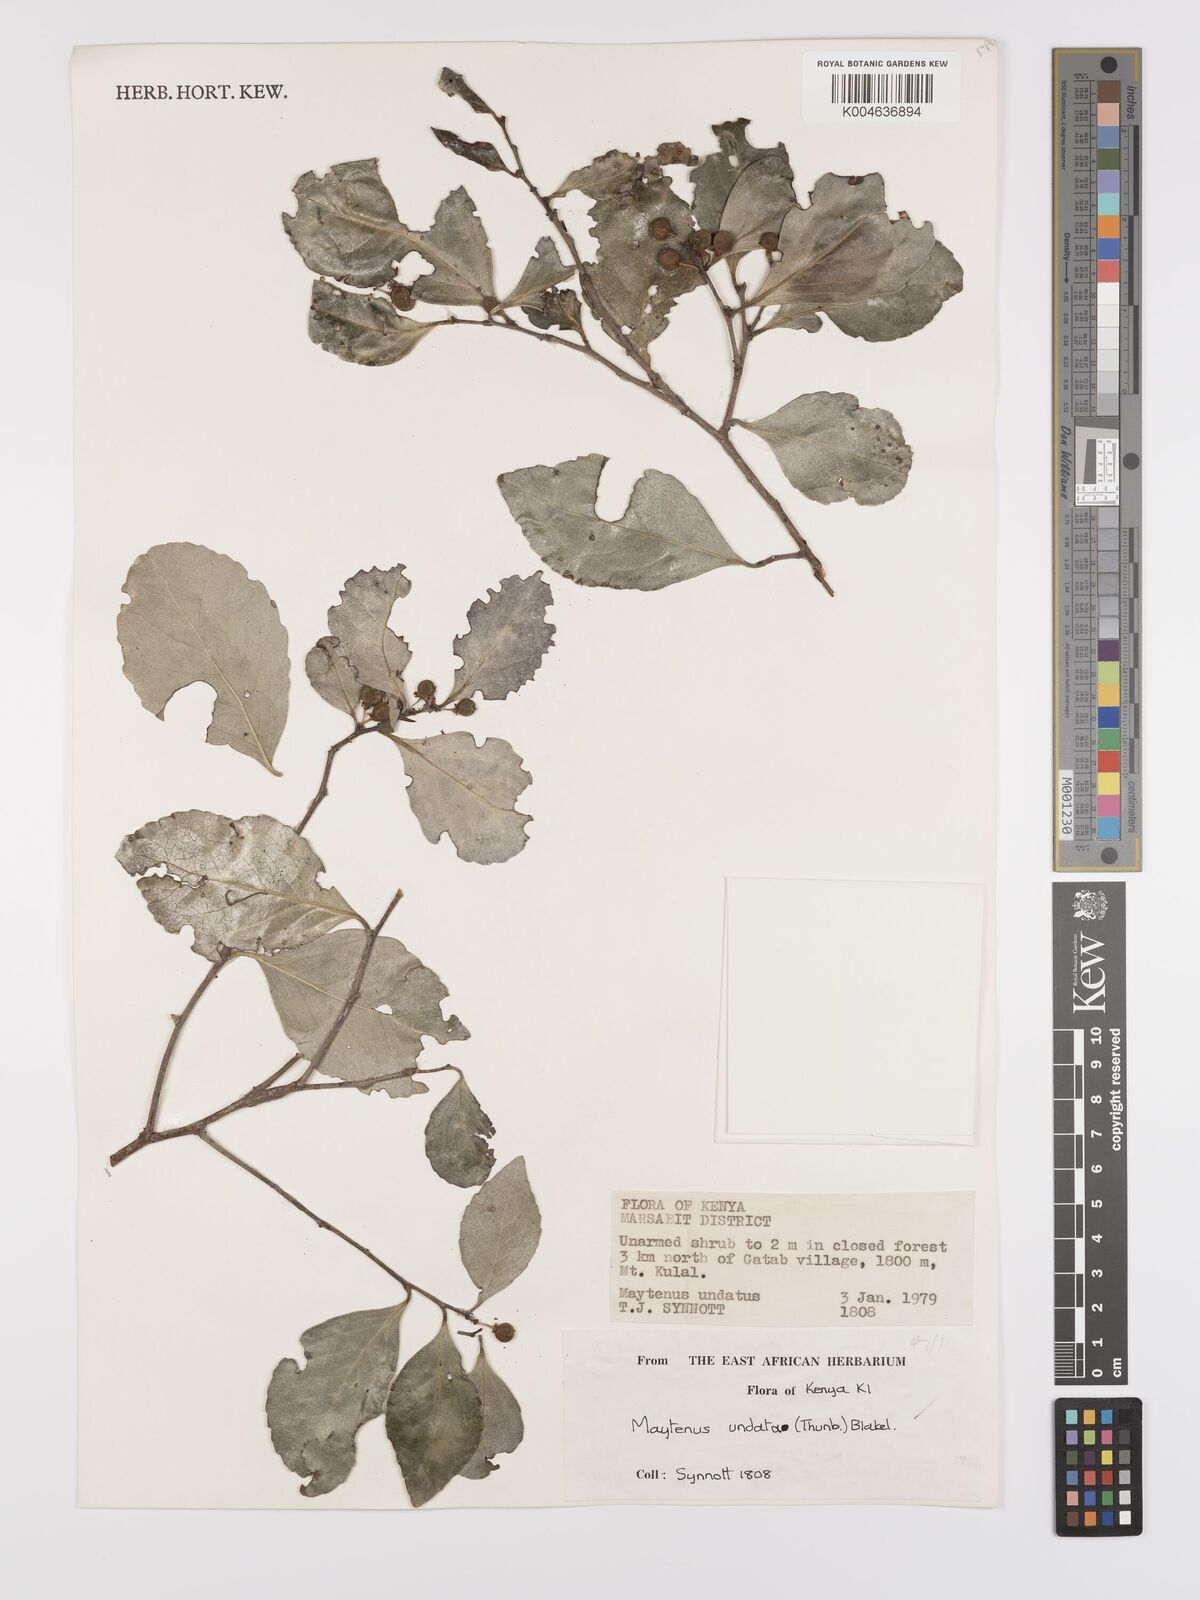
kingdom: Plantae
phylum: Tracheophyta
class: Magnoliopsida
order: Celastrales
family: Celastraceae
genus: Gymnosporia
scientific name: Gymnosporia undata
